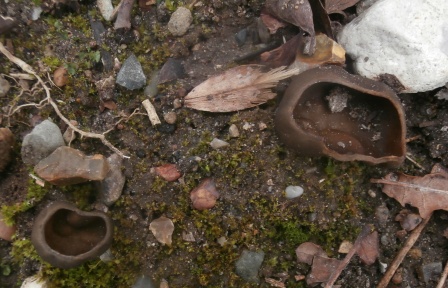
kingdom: Fungi
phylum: Ascomycota
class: Pezizomycetes
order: Pezizales
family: Morchellaceae
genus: Disciotis
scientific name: Disciotis venosa
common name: klor-bægermorkel
